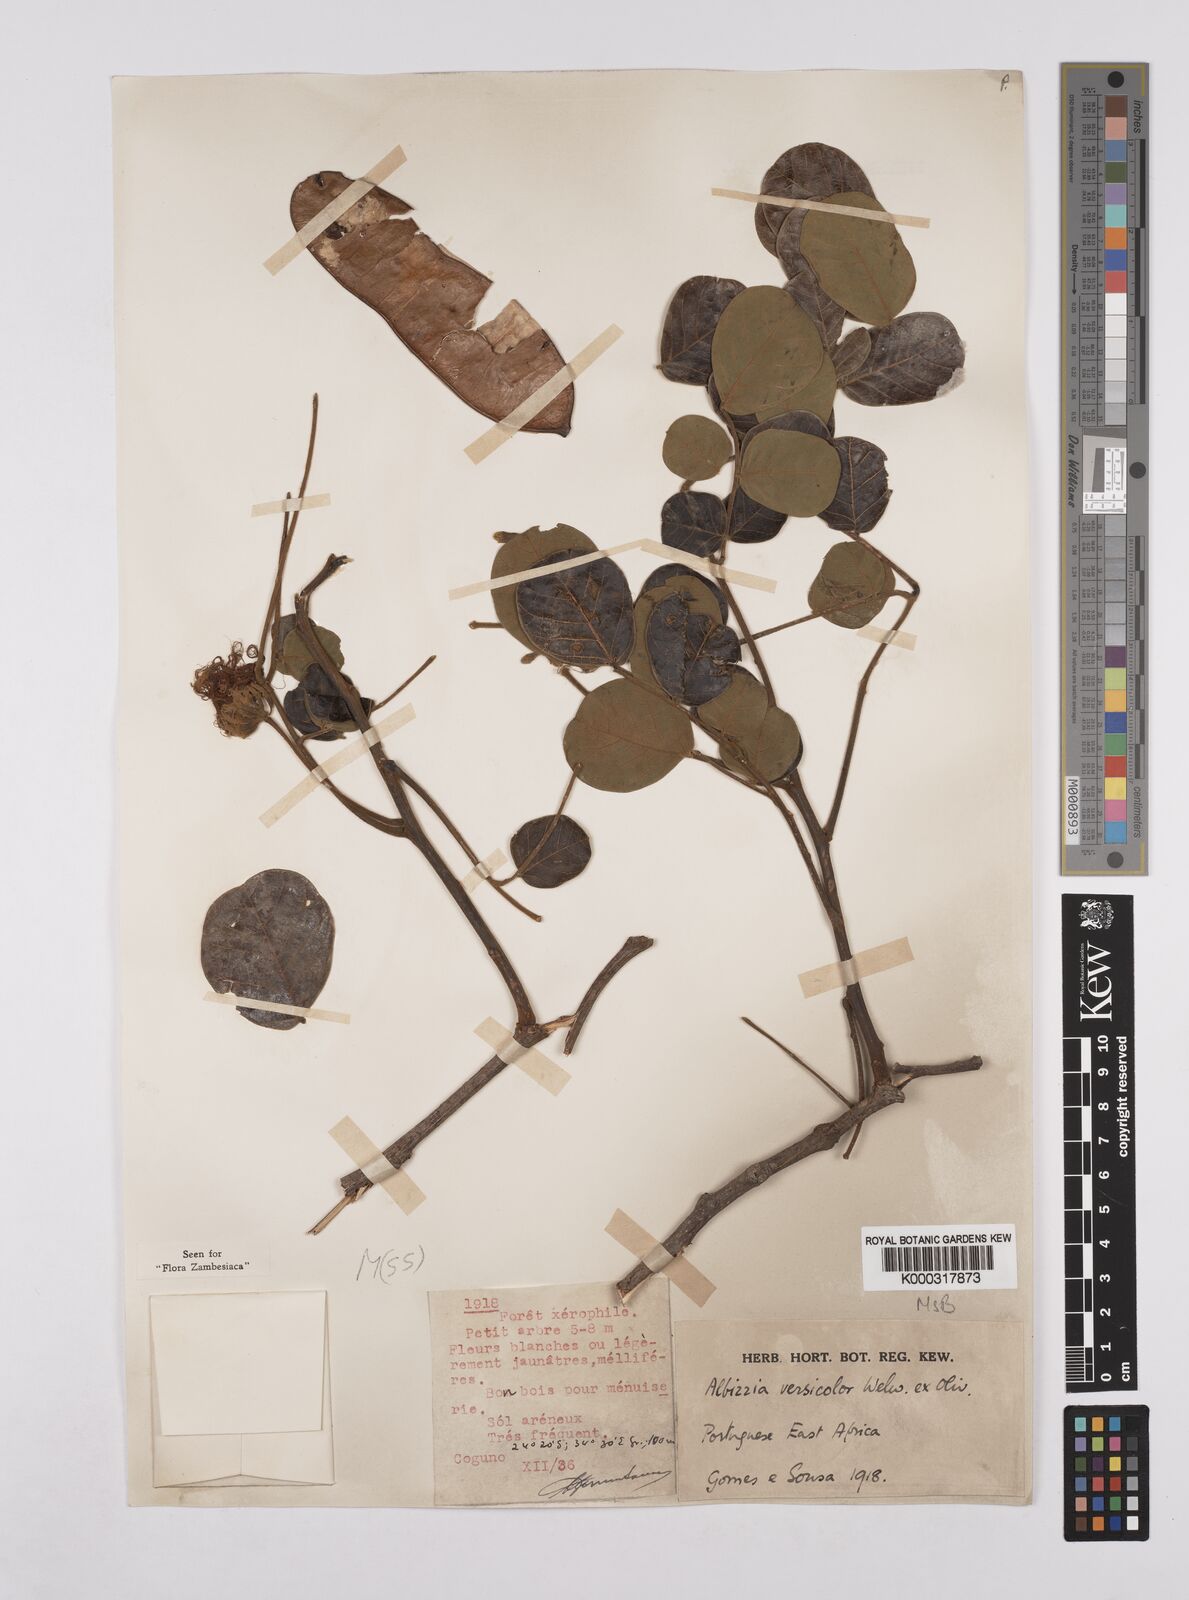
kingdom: Plantae
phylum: Tracheophyta
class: Magnoliopsida
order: Fabales
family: Fabaceae
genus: Albizia
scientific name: Albizia versicolor
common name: Poisonpod
